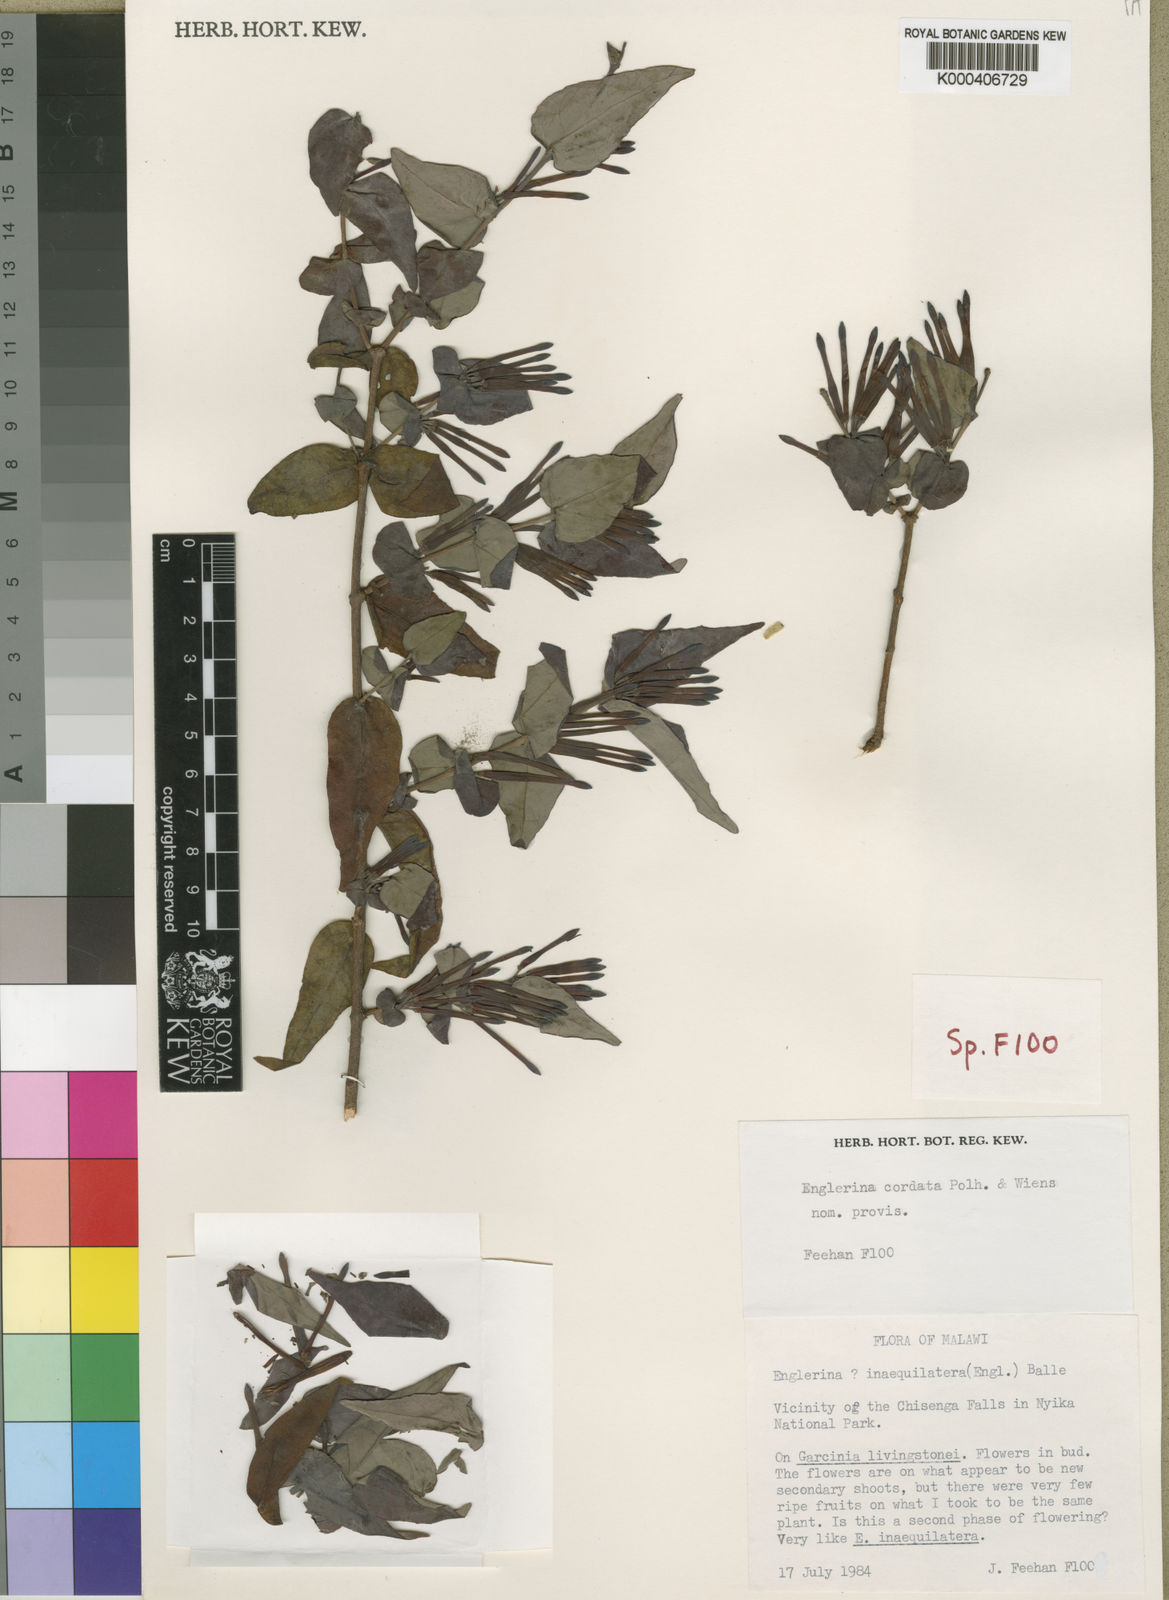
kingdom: Plantae
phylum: Tracheophyta
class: Magnoliopsida
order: Santalales
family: Loranthaceae
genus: Englerina
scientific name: Englerina cordata
